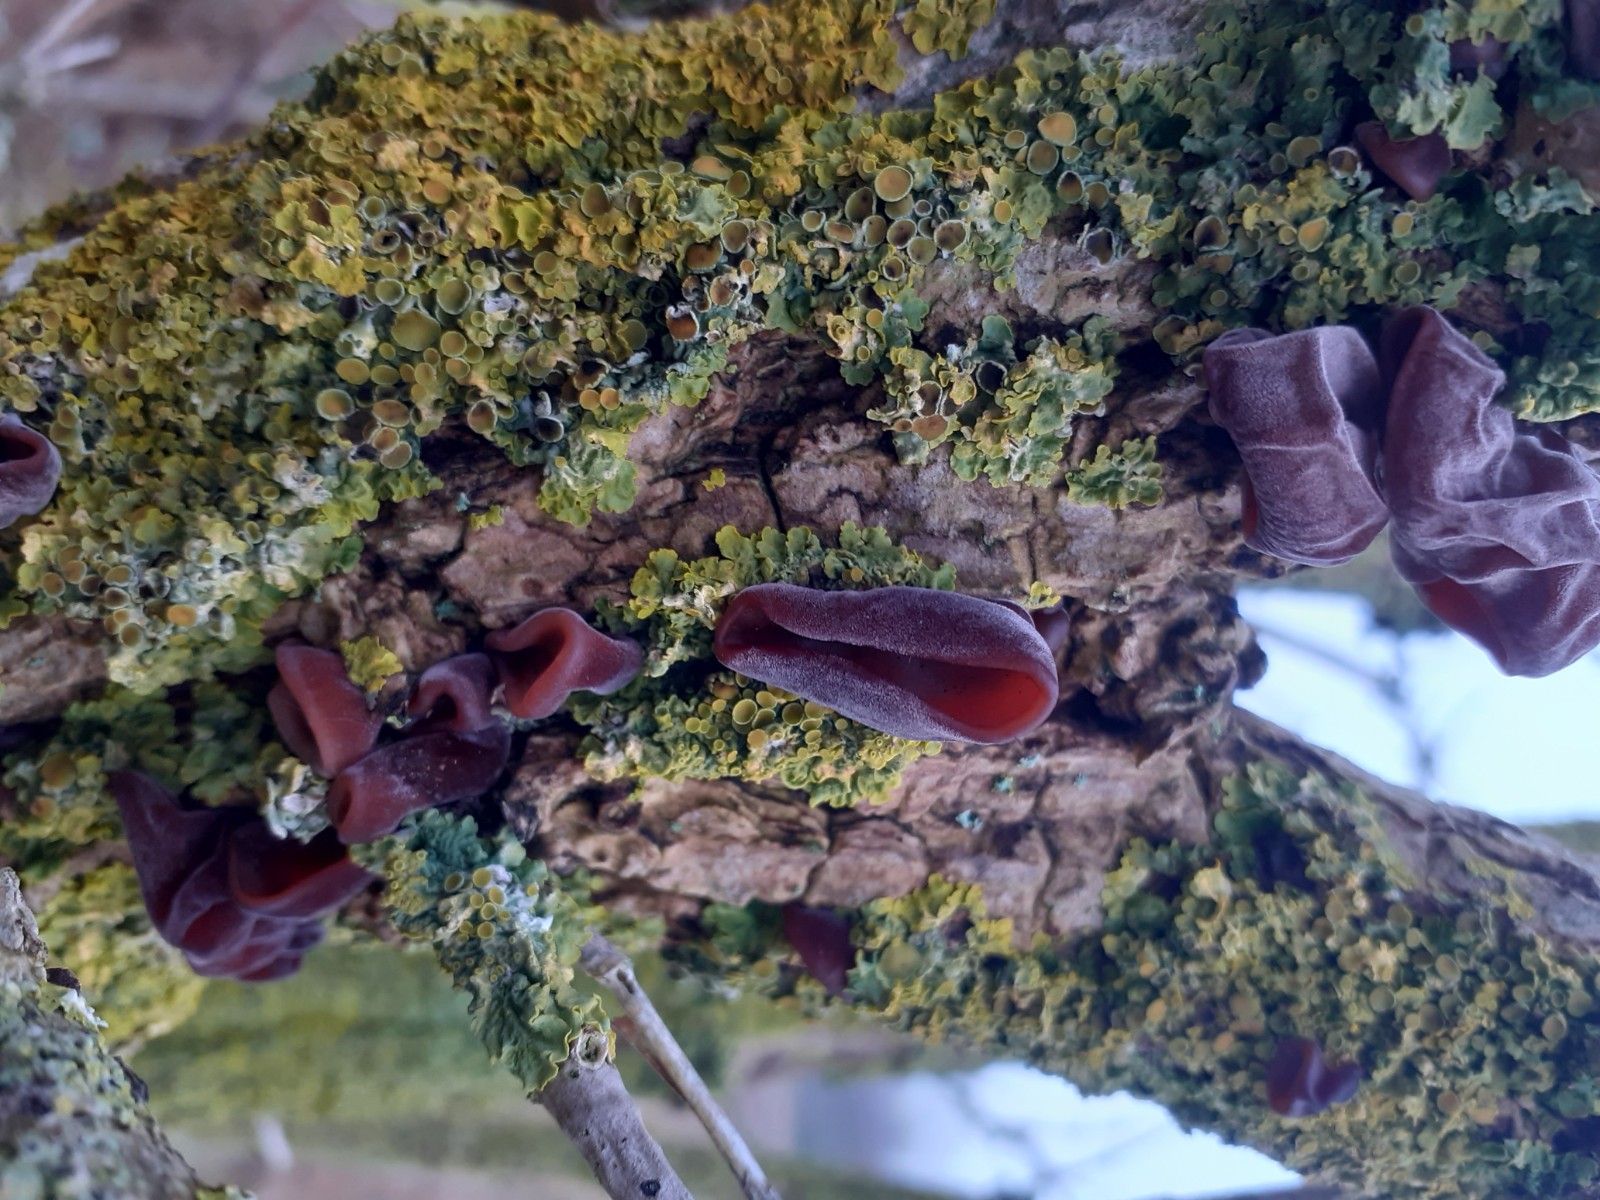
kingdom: Fungi
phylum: Basidiomycota
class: Agaricomycetes
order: Auriculariales
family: Auriculariaceae
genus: Auricularia
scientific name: Auricularia auricula-judae
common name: almindelig judasøre
